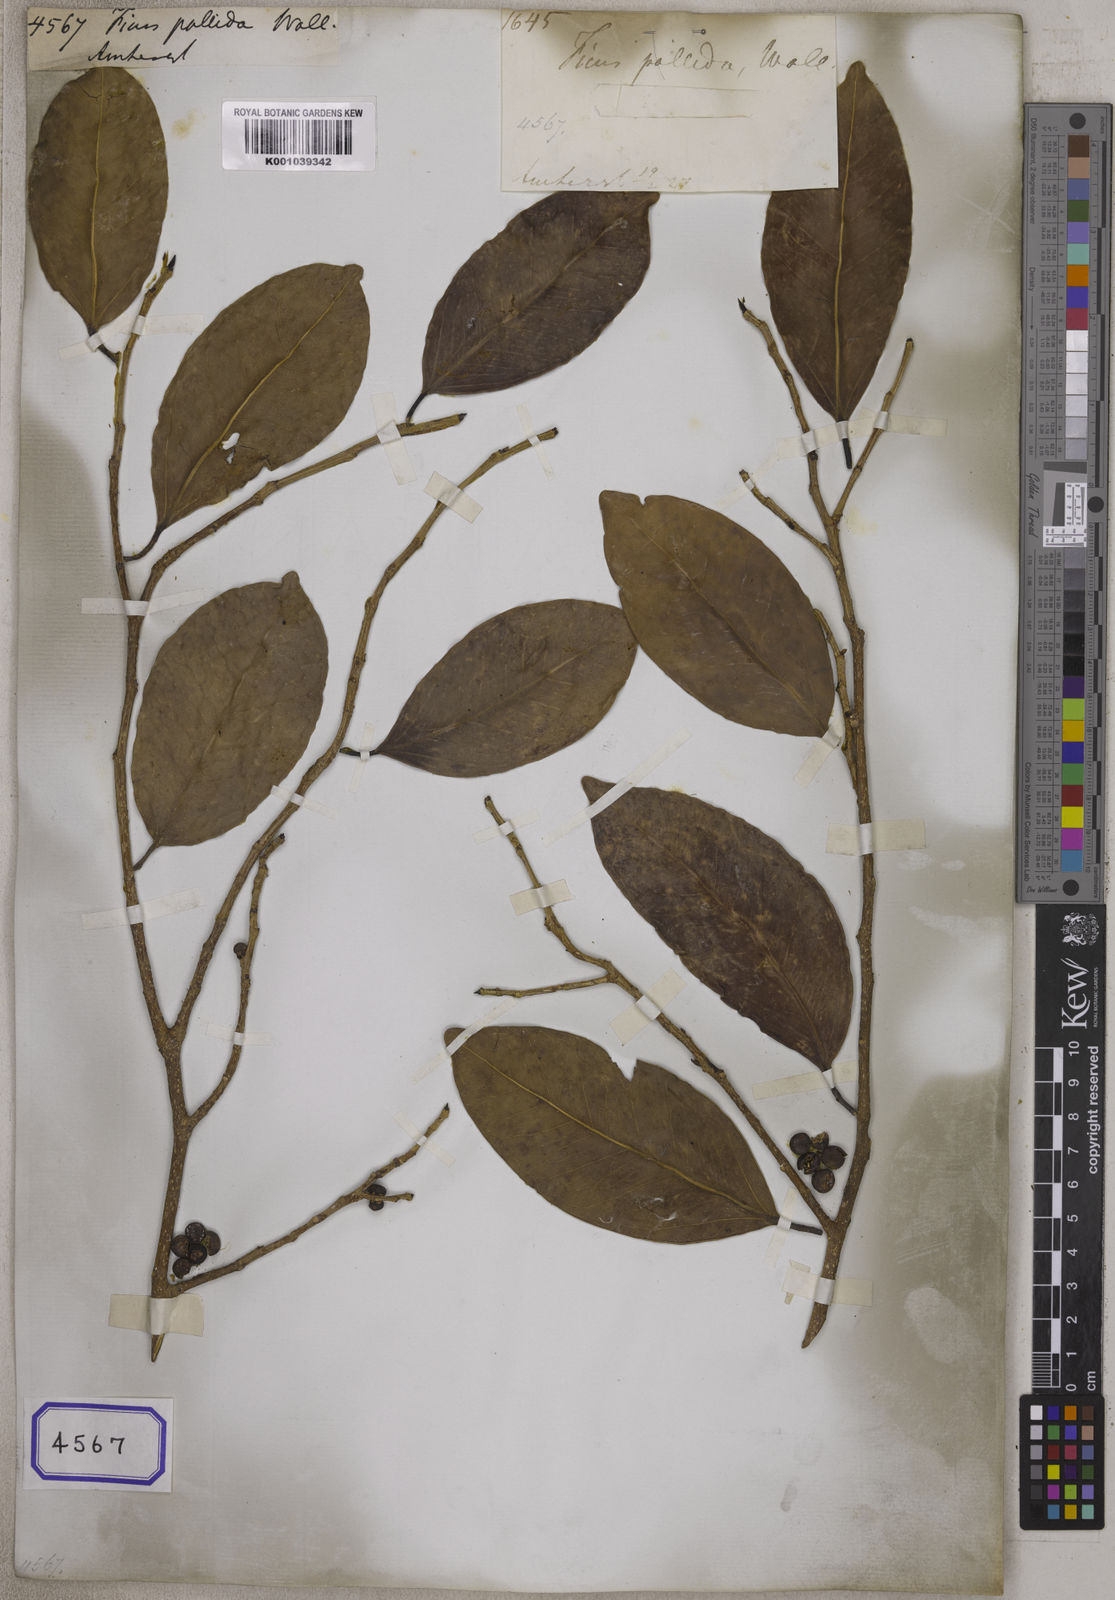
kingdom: Plantae
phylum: Tracheophyta
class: Magnoliopsida
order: Rosales
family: Moraceae
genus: Ficus
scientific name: Ficus
